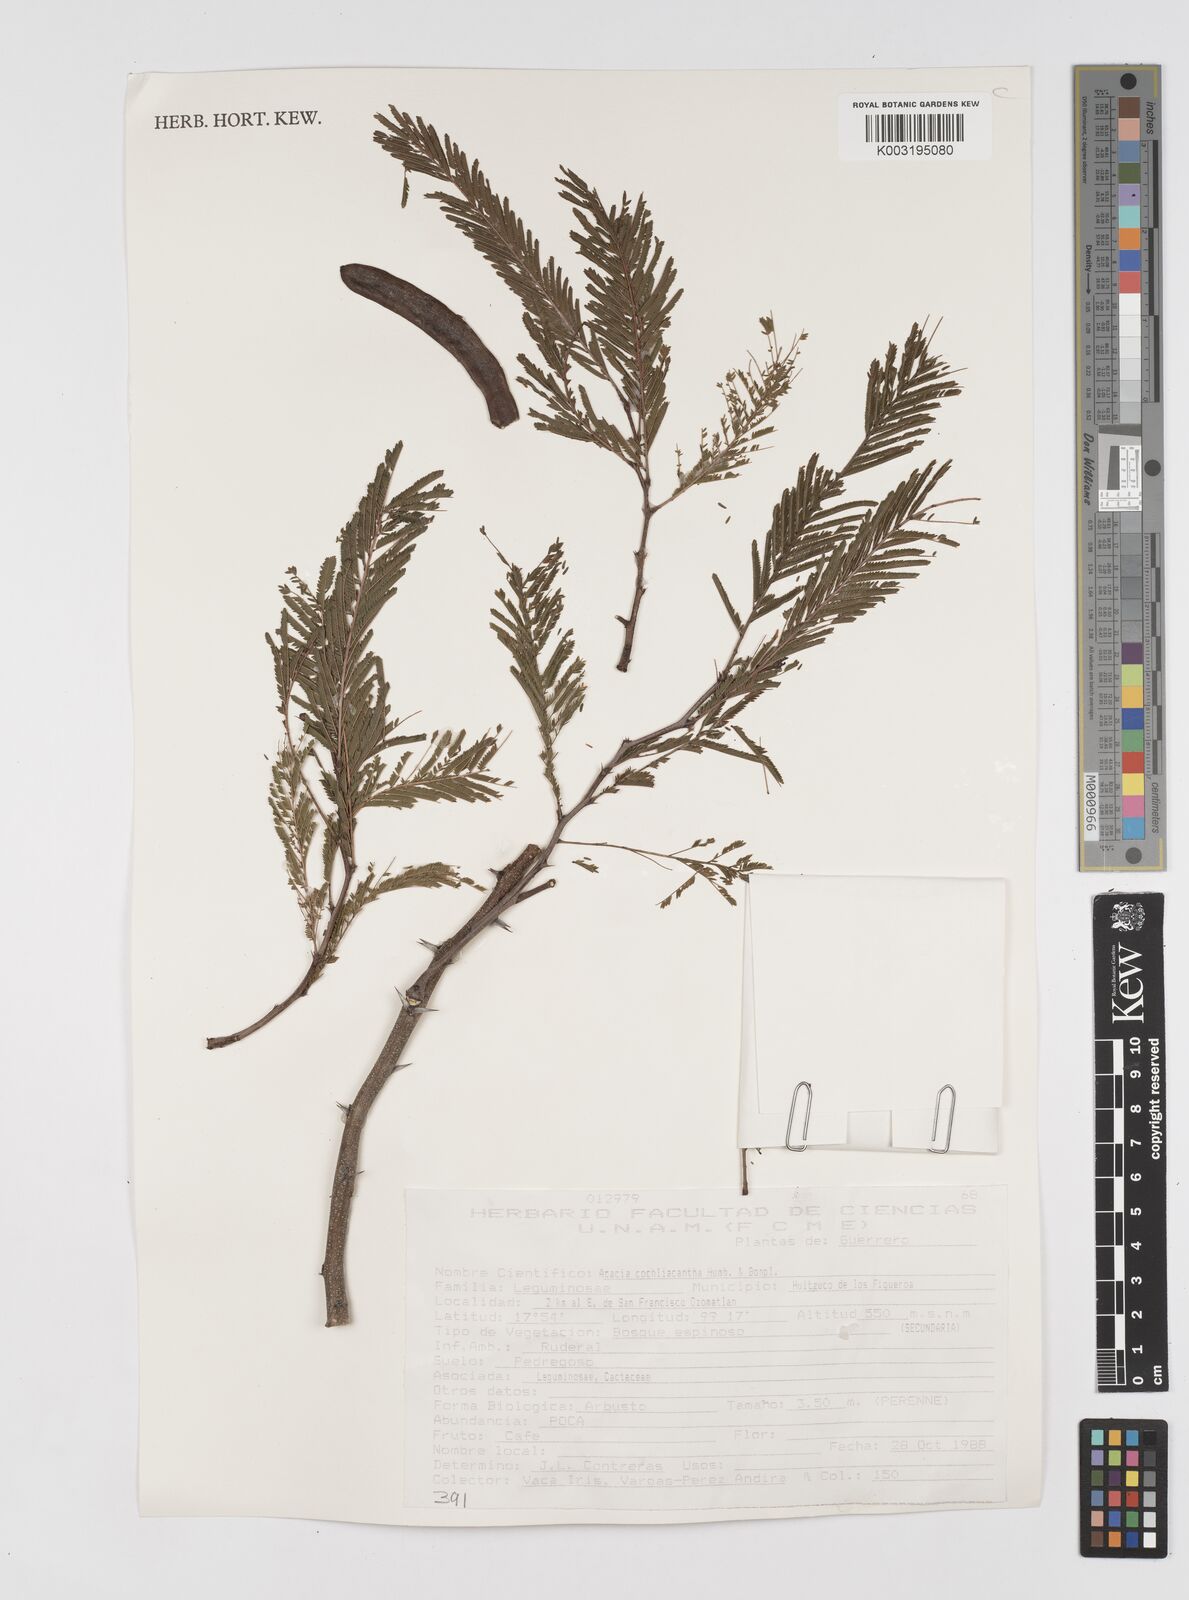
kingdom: Plantae
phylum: Tracheophyta
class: Magnoliopsida
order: Fabales
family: Fabaceae
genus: Vachellia
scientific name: Vachellia campeachiana
